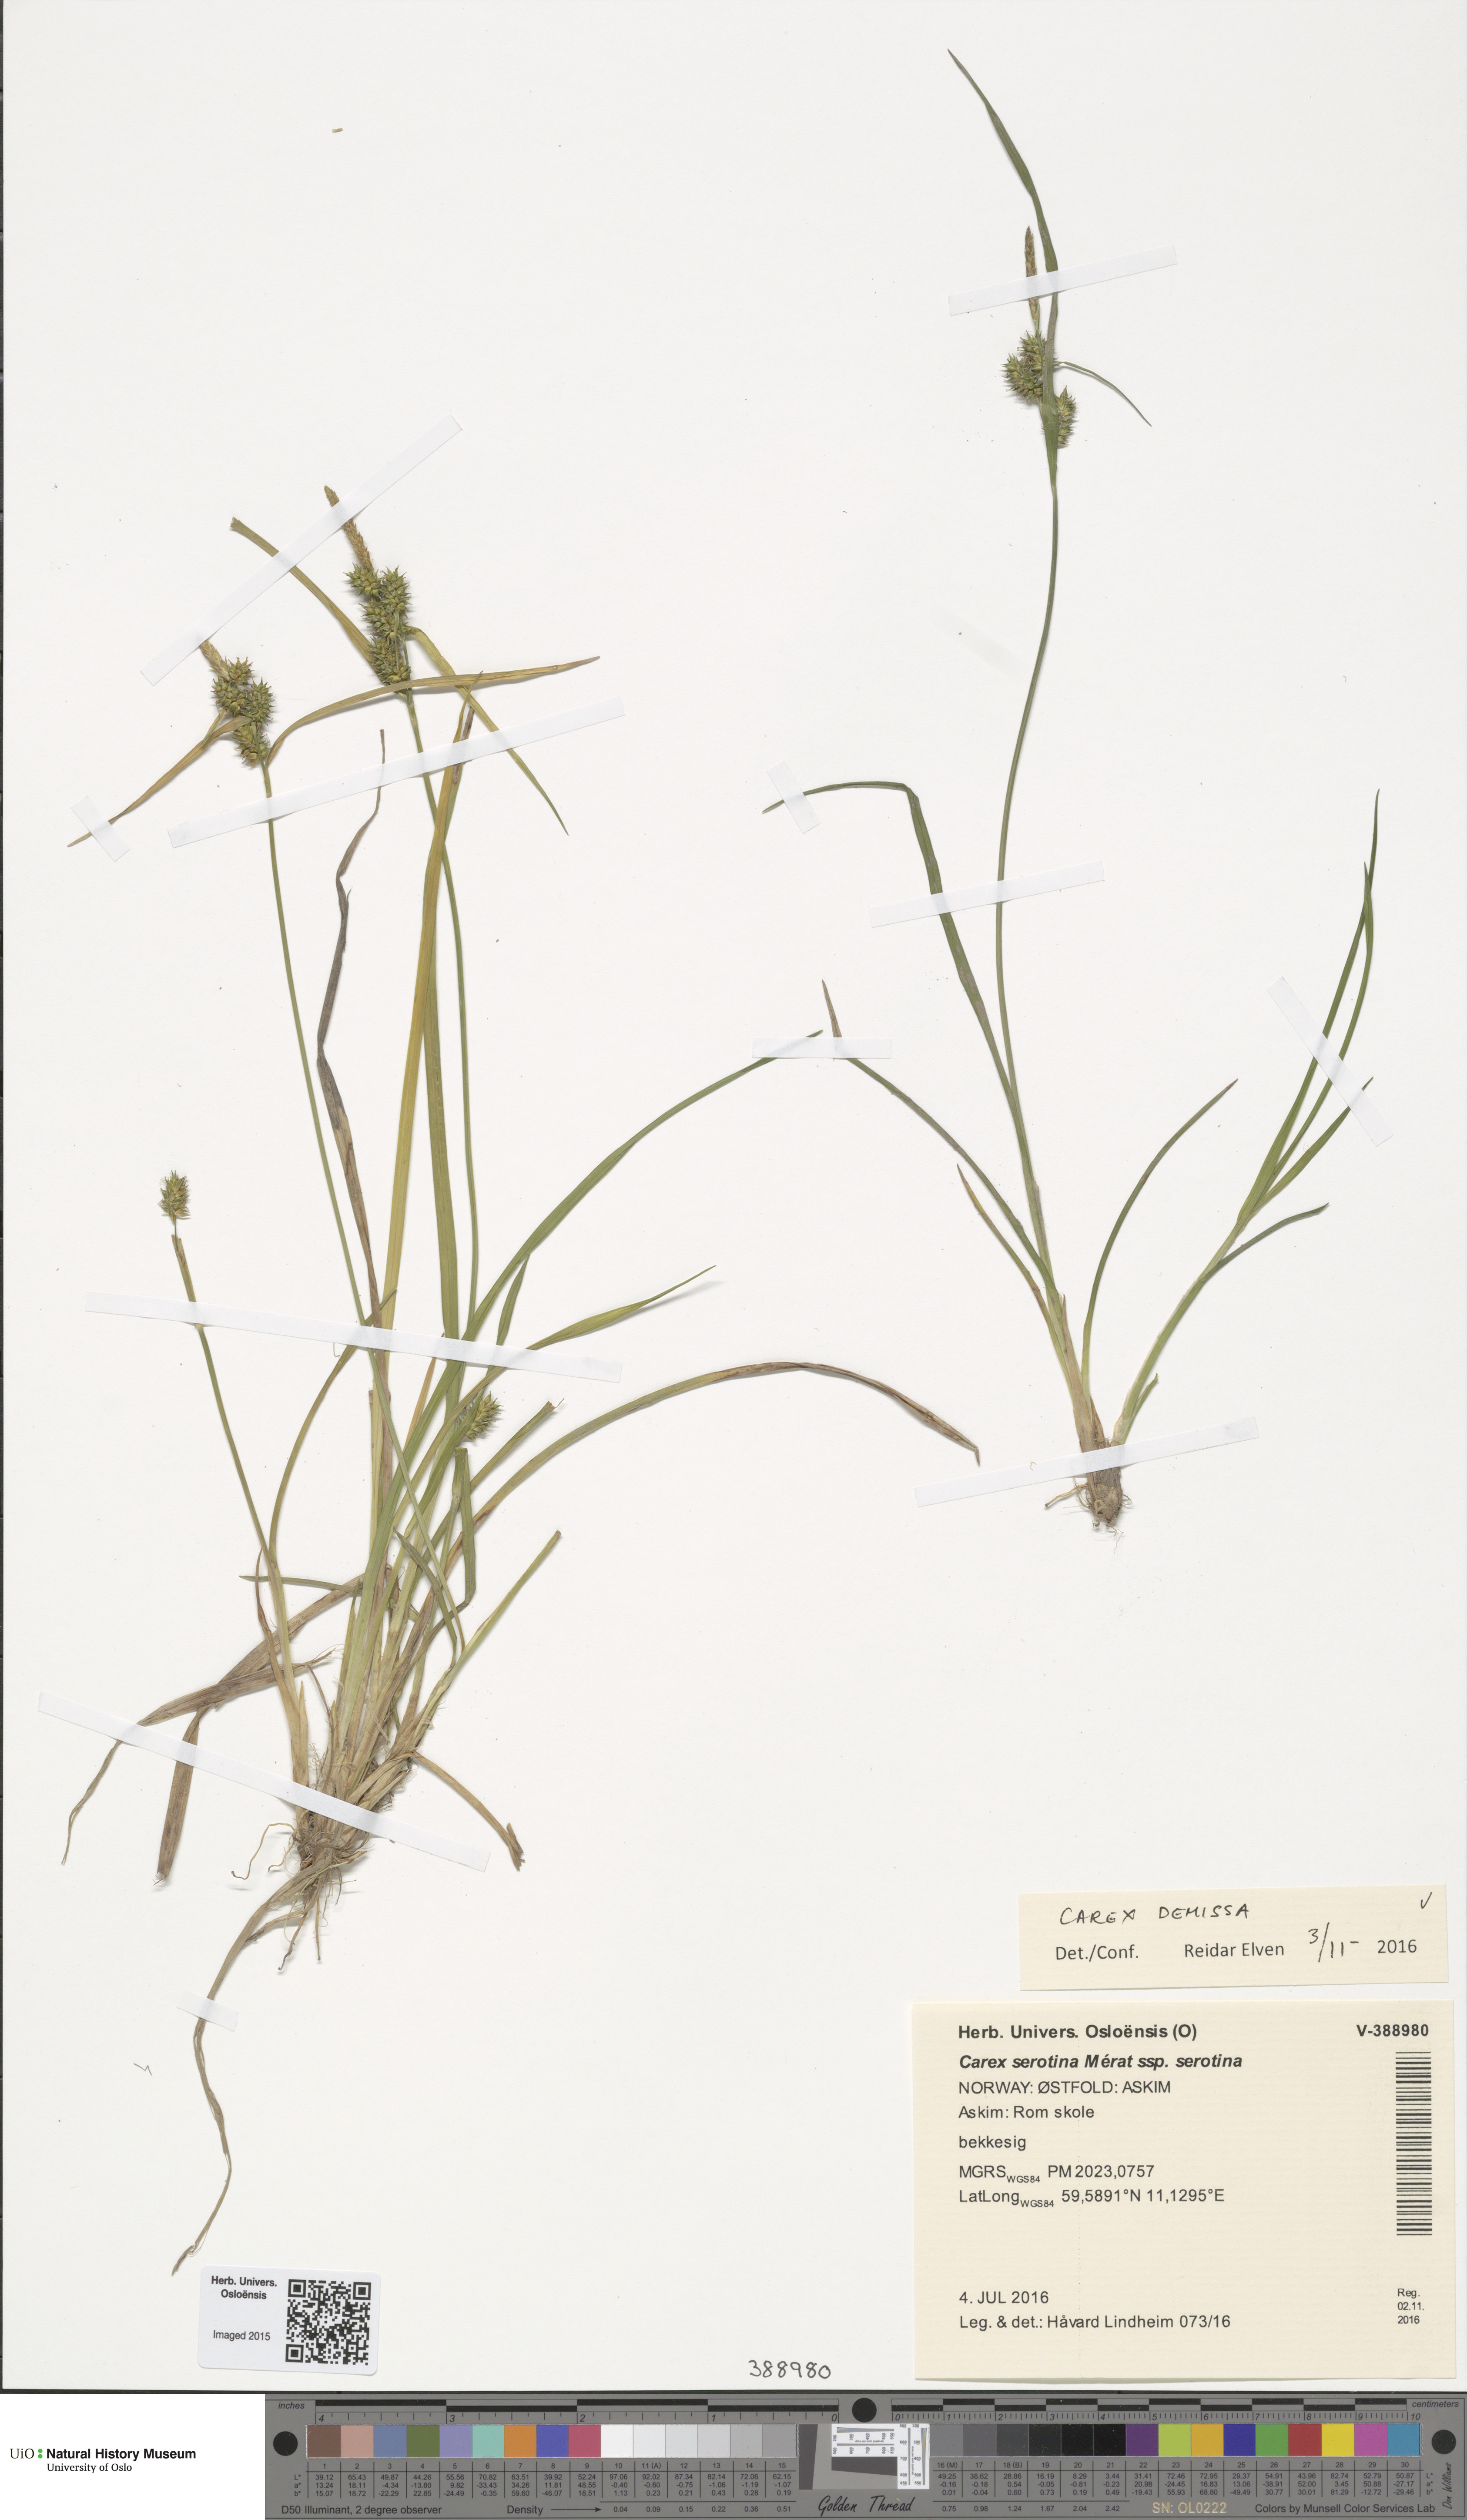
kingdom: Plantae
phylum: Tracheophyta
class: Liliopsida
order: Poales
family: Cyperaceae
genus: Carex
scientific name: Carex demissa
